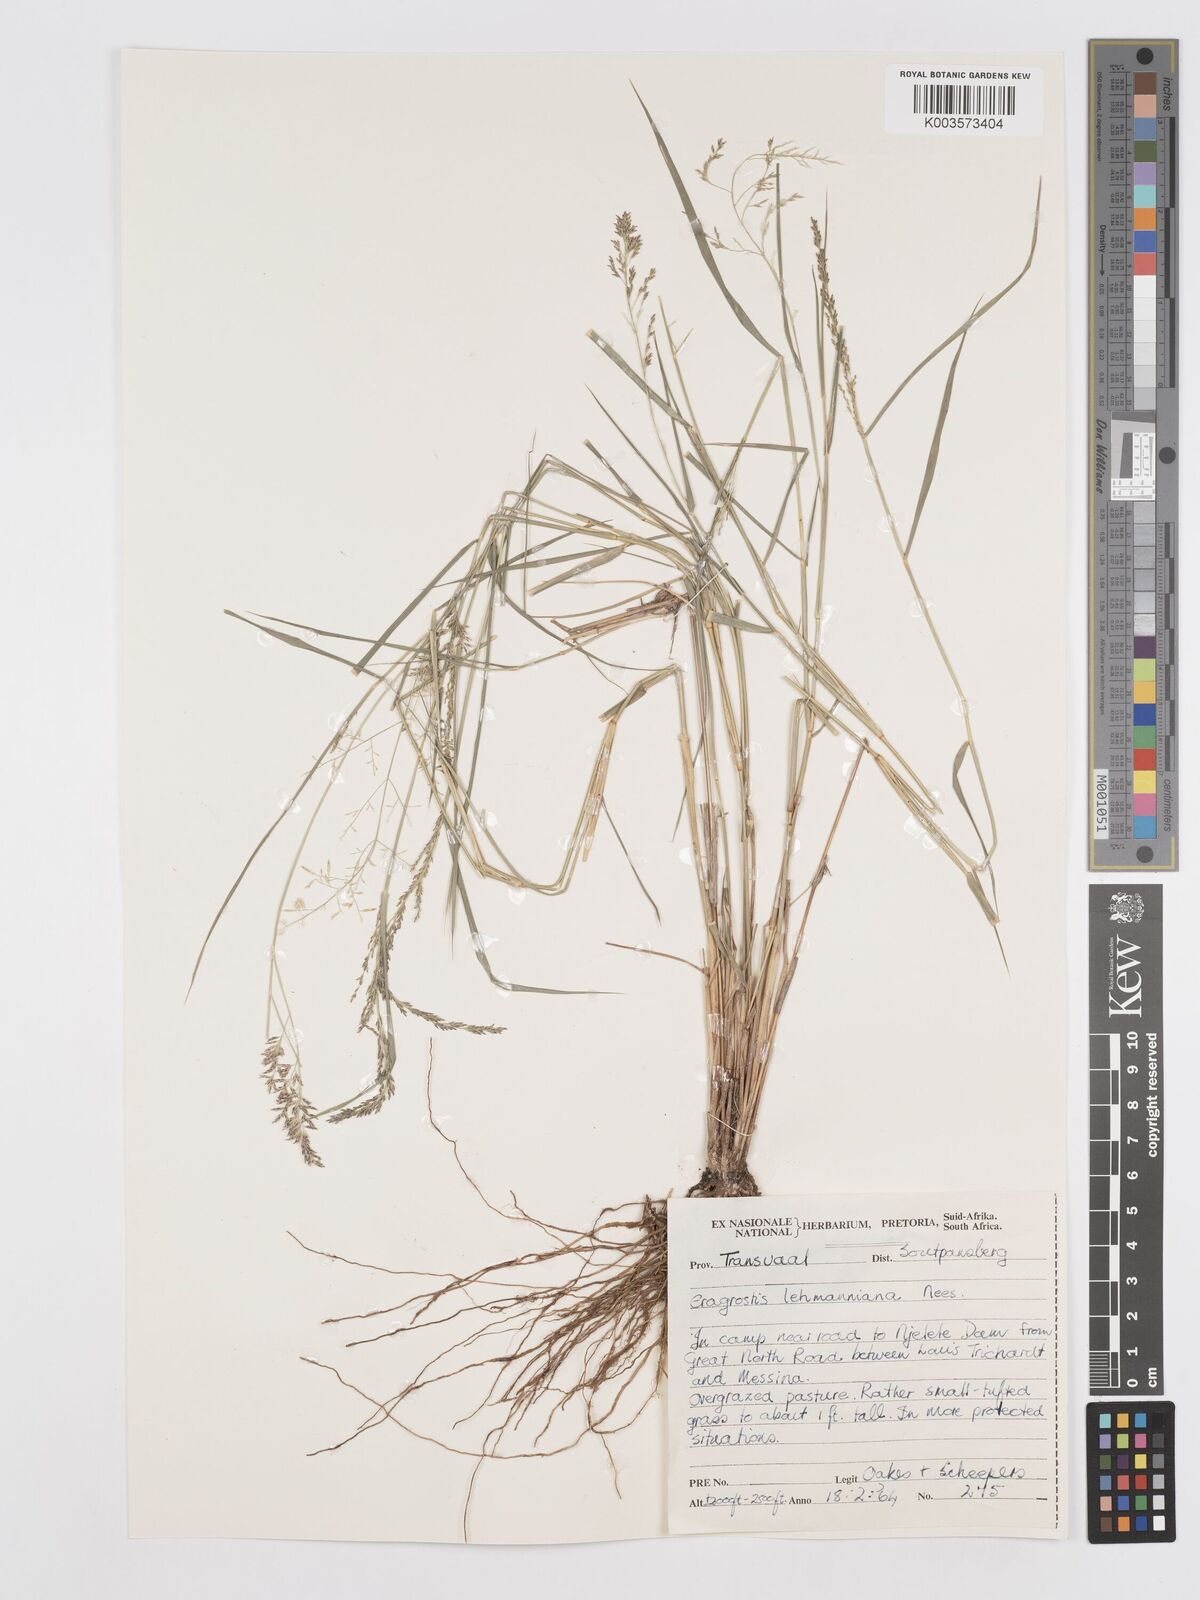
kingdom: Plantae
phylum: Tracheophyta
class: Liliopsida
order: Poales
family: Poaceae
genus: Eragrostis
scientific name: Eragrostis lehmanniana
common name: Lehmann lovegrass
